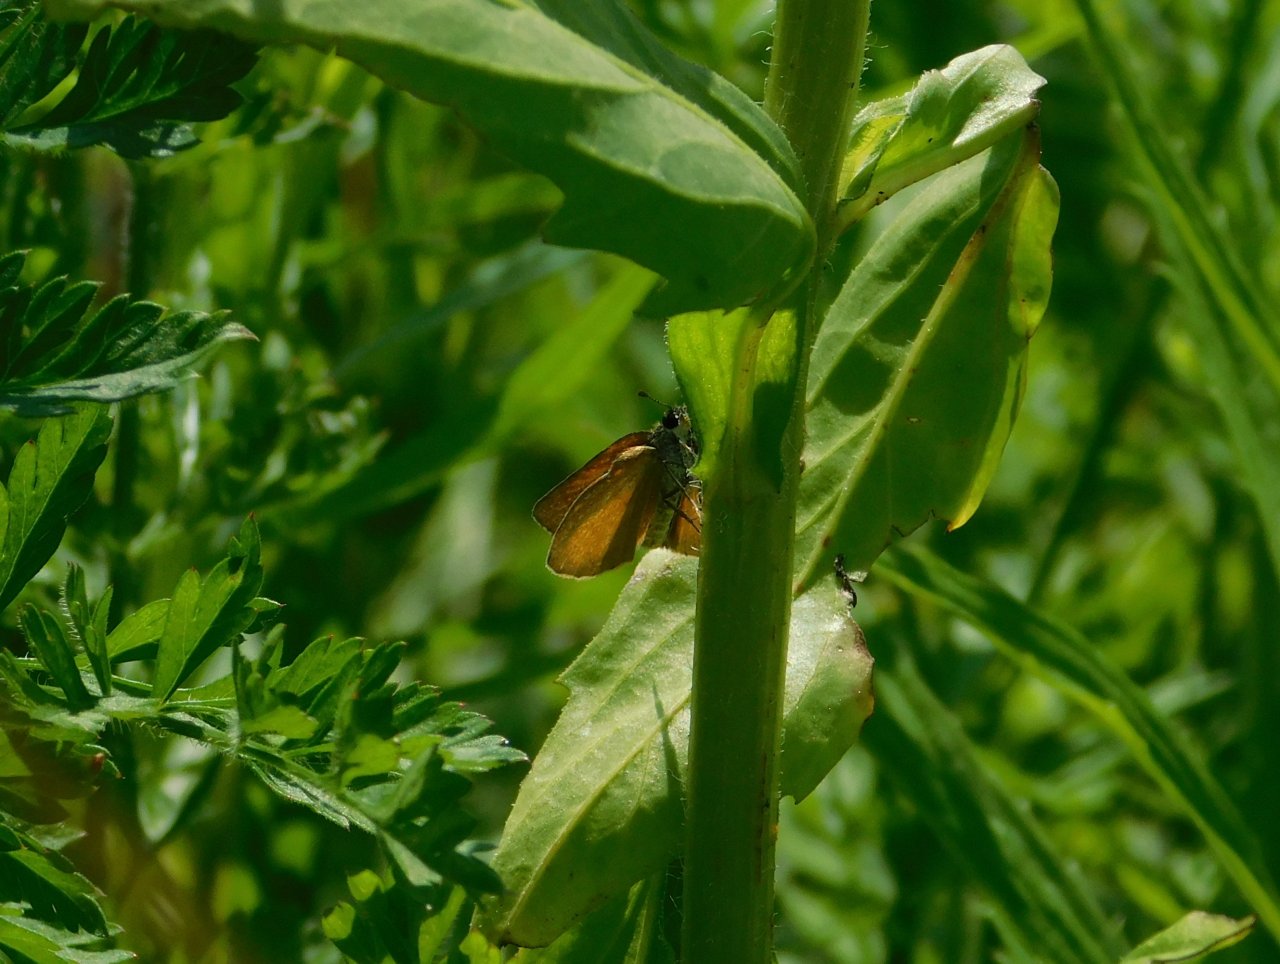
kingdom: Animalia
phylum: Arthropoda
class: Insecta
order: Lepidoptera
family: Hesperiidae
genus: Ancyloxypha
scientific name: Ancyloxypha numitor
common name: Least Skipper
